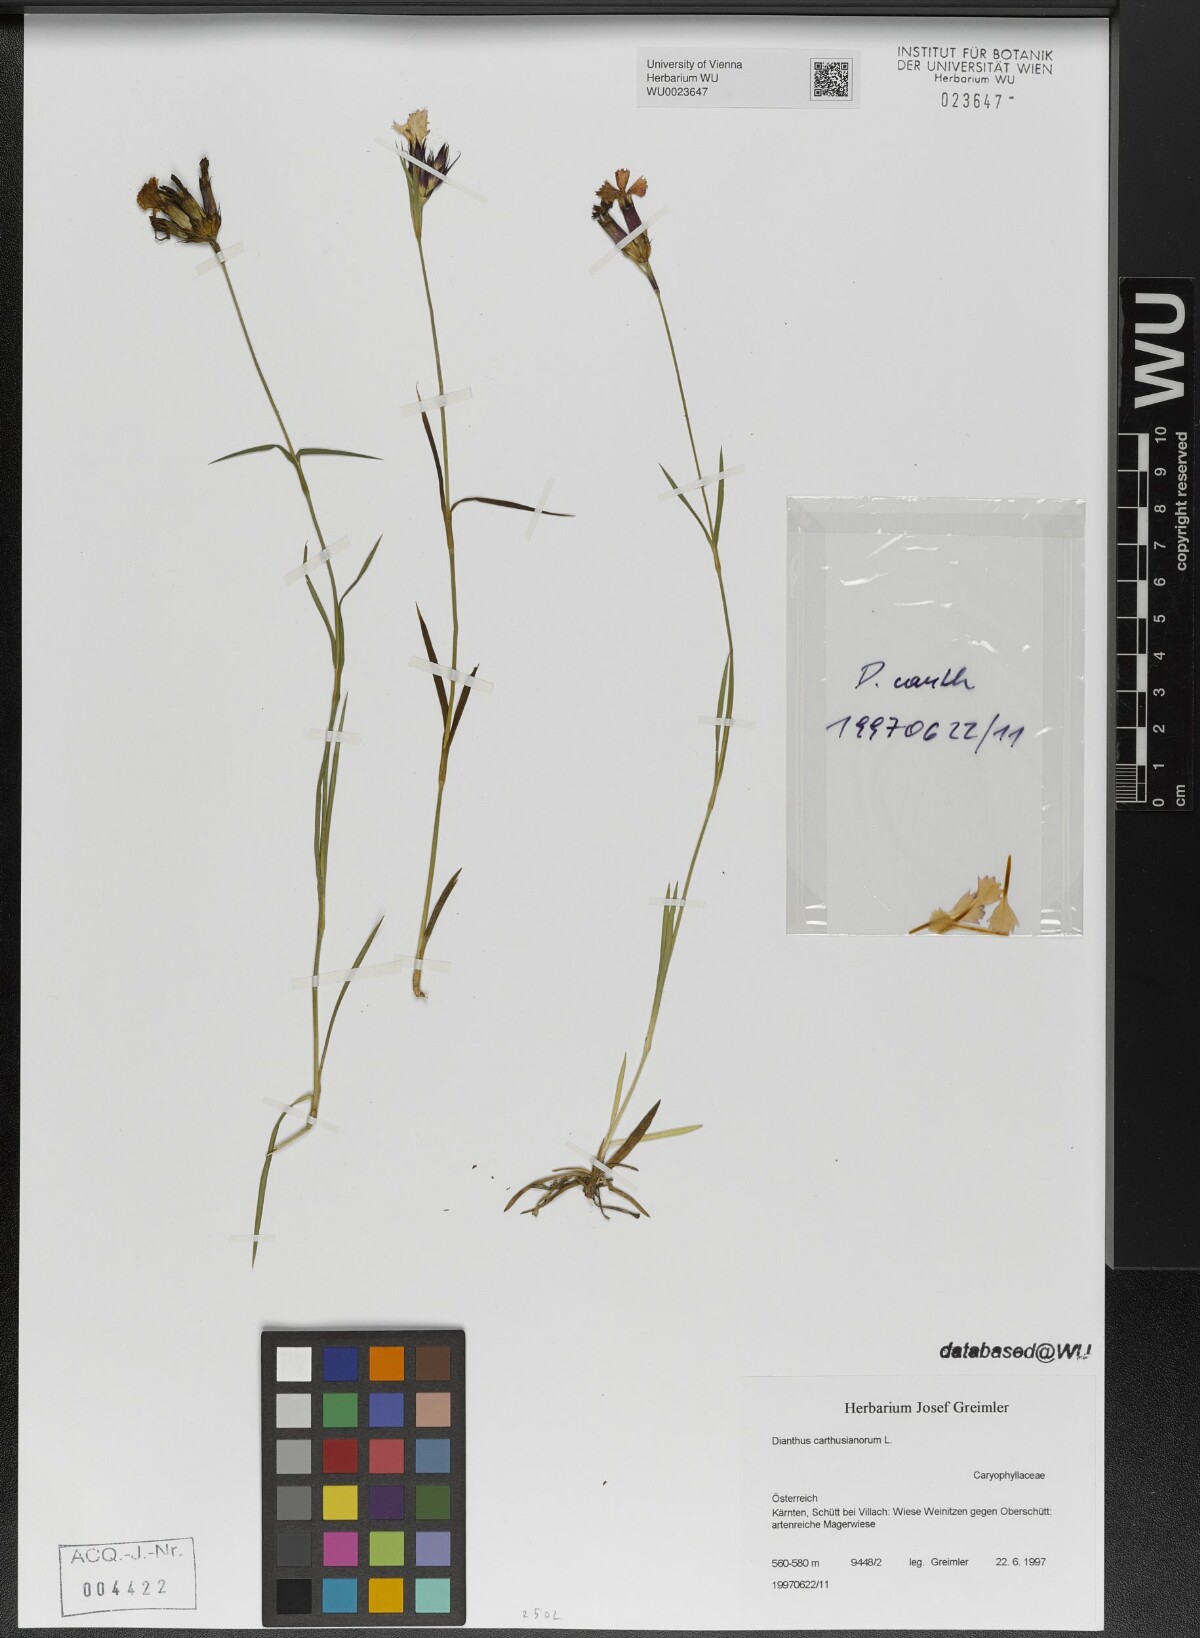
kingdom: Plantae
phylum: Tracheophyta
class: Magnoliopsida
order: Caryophyllales
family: Caryophyllaceae
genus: Dianthus
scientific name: Dianthus carthusianorum
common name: Carthusian pink
